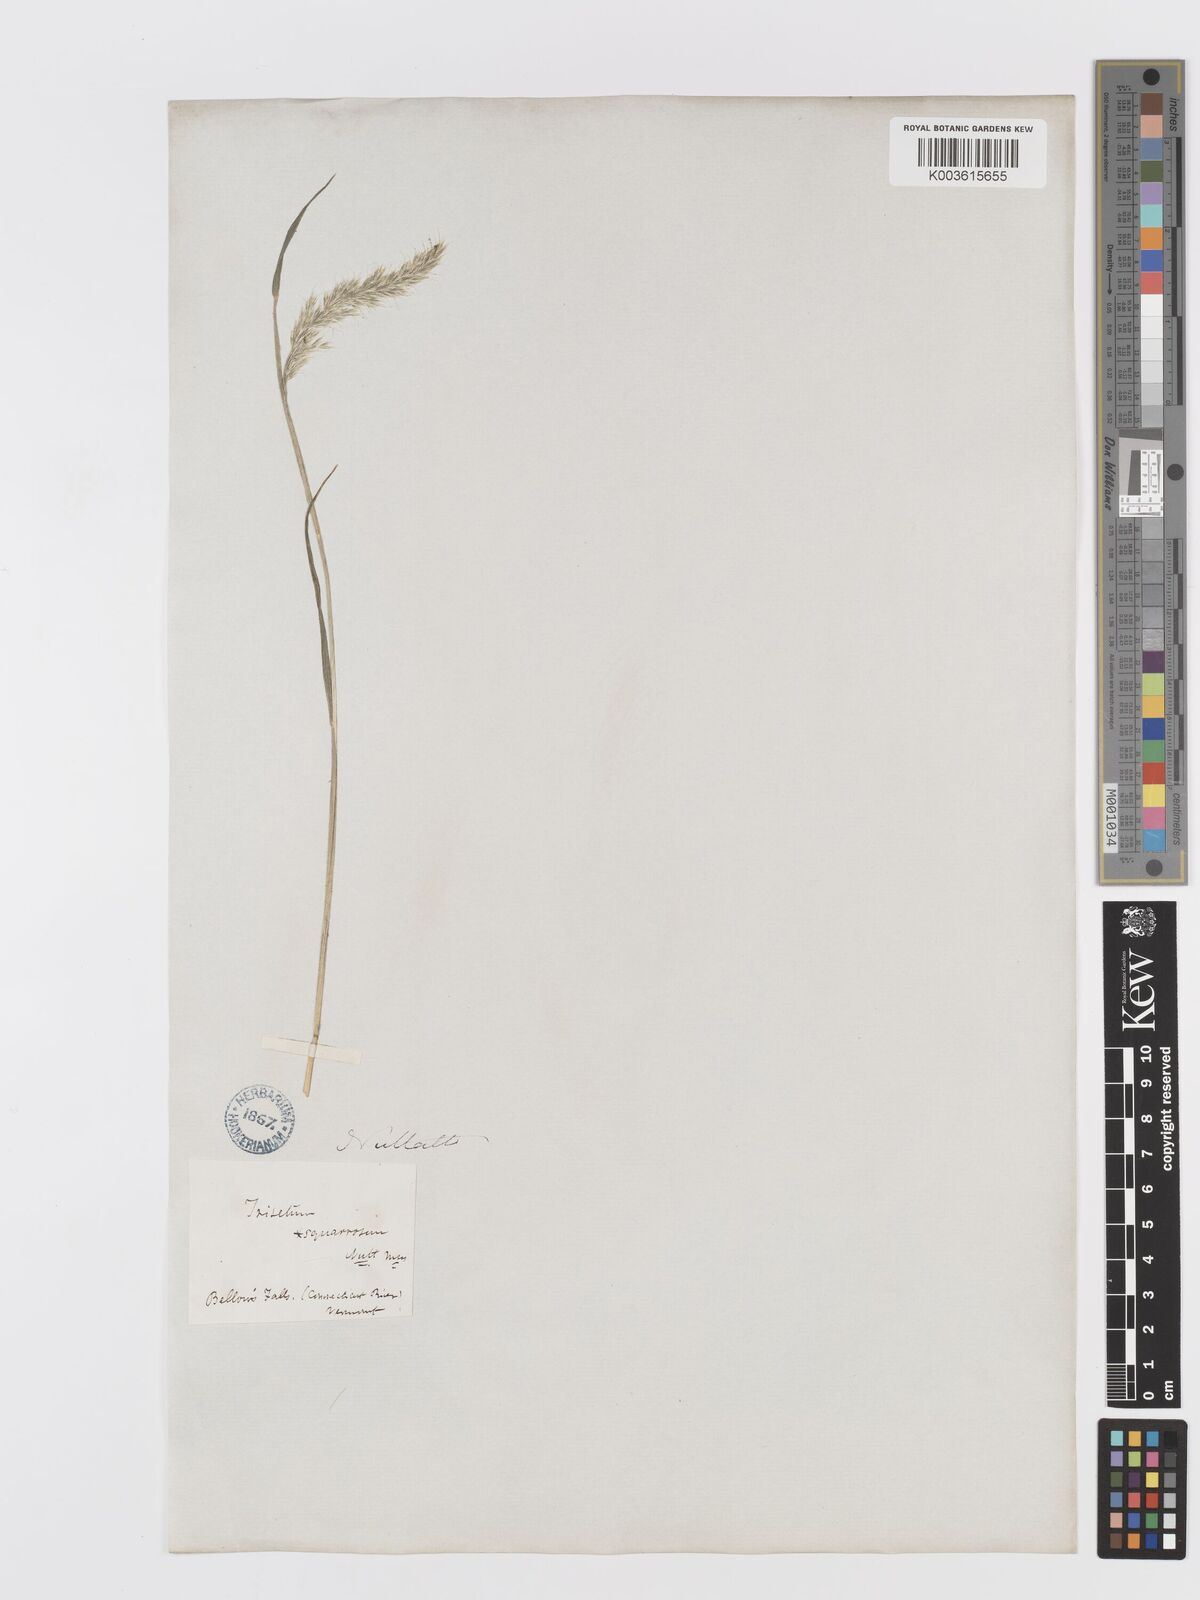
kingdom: Plantae
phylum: Tracheophyta
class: Liliopsida
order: Poales
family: Poaceae
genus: Koeleria
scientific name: Koeleria spicata
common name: Mountain trisetum
